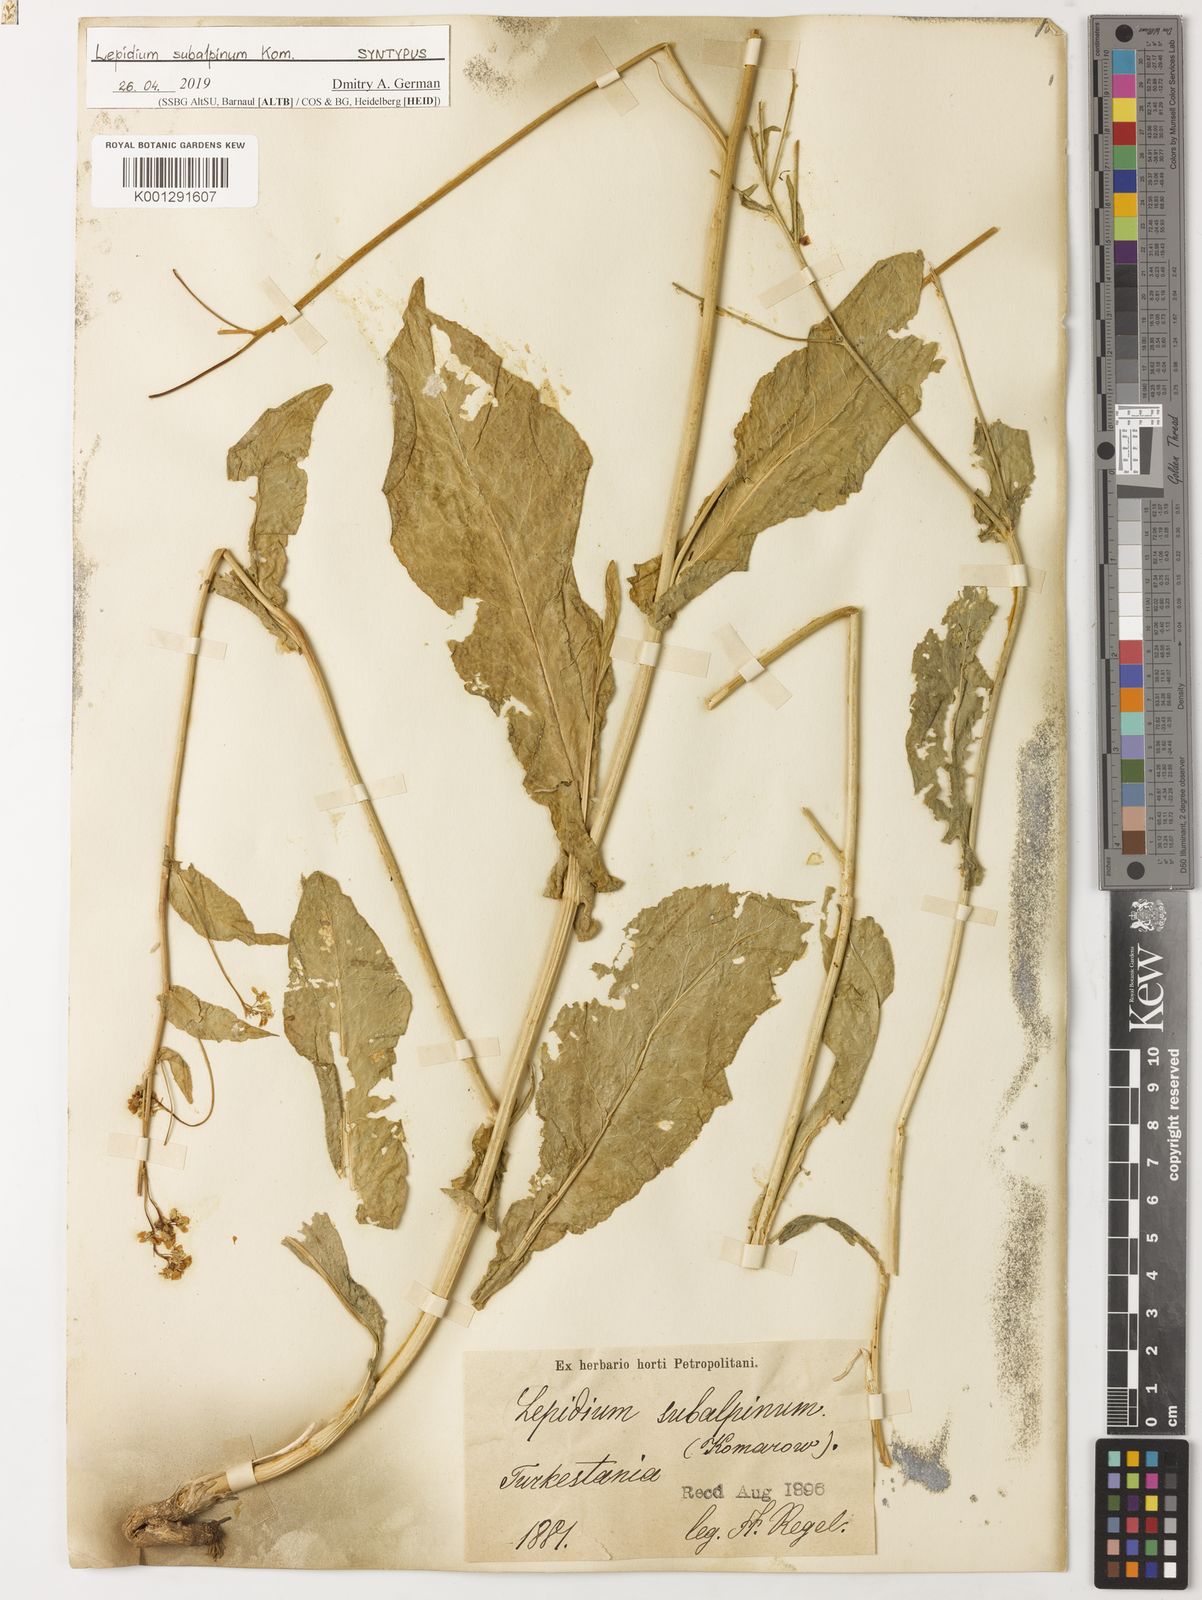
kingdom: Plantae
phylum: Tracheophyta
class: Magnoliopsida
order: Brassicales
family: Brassicaceae
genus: Lepidium
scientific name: Lepidium subalpinum
